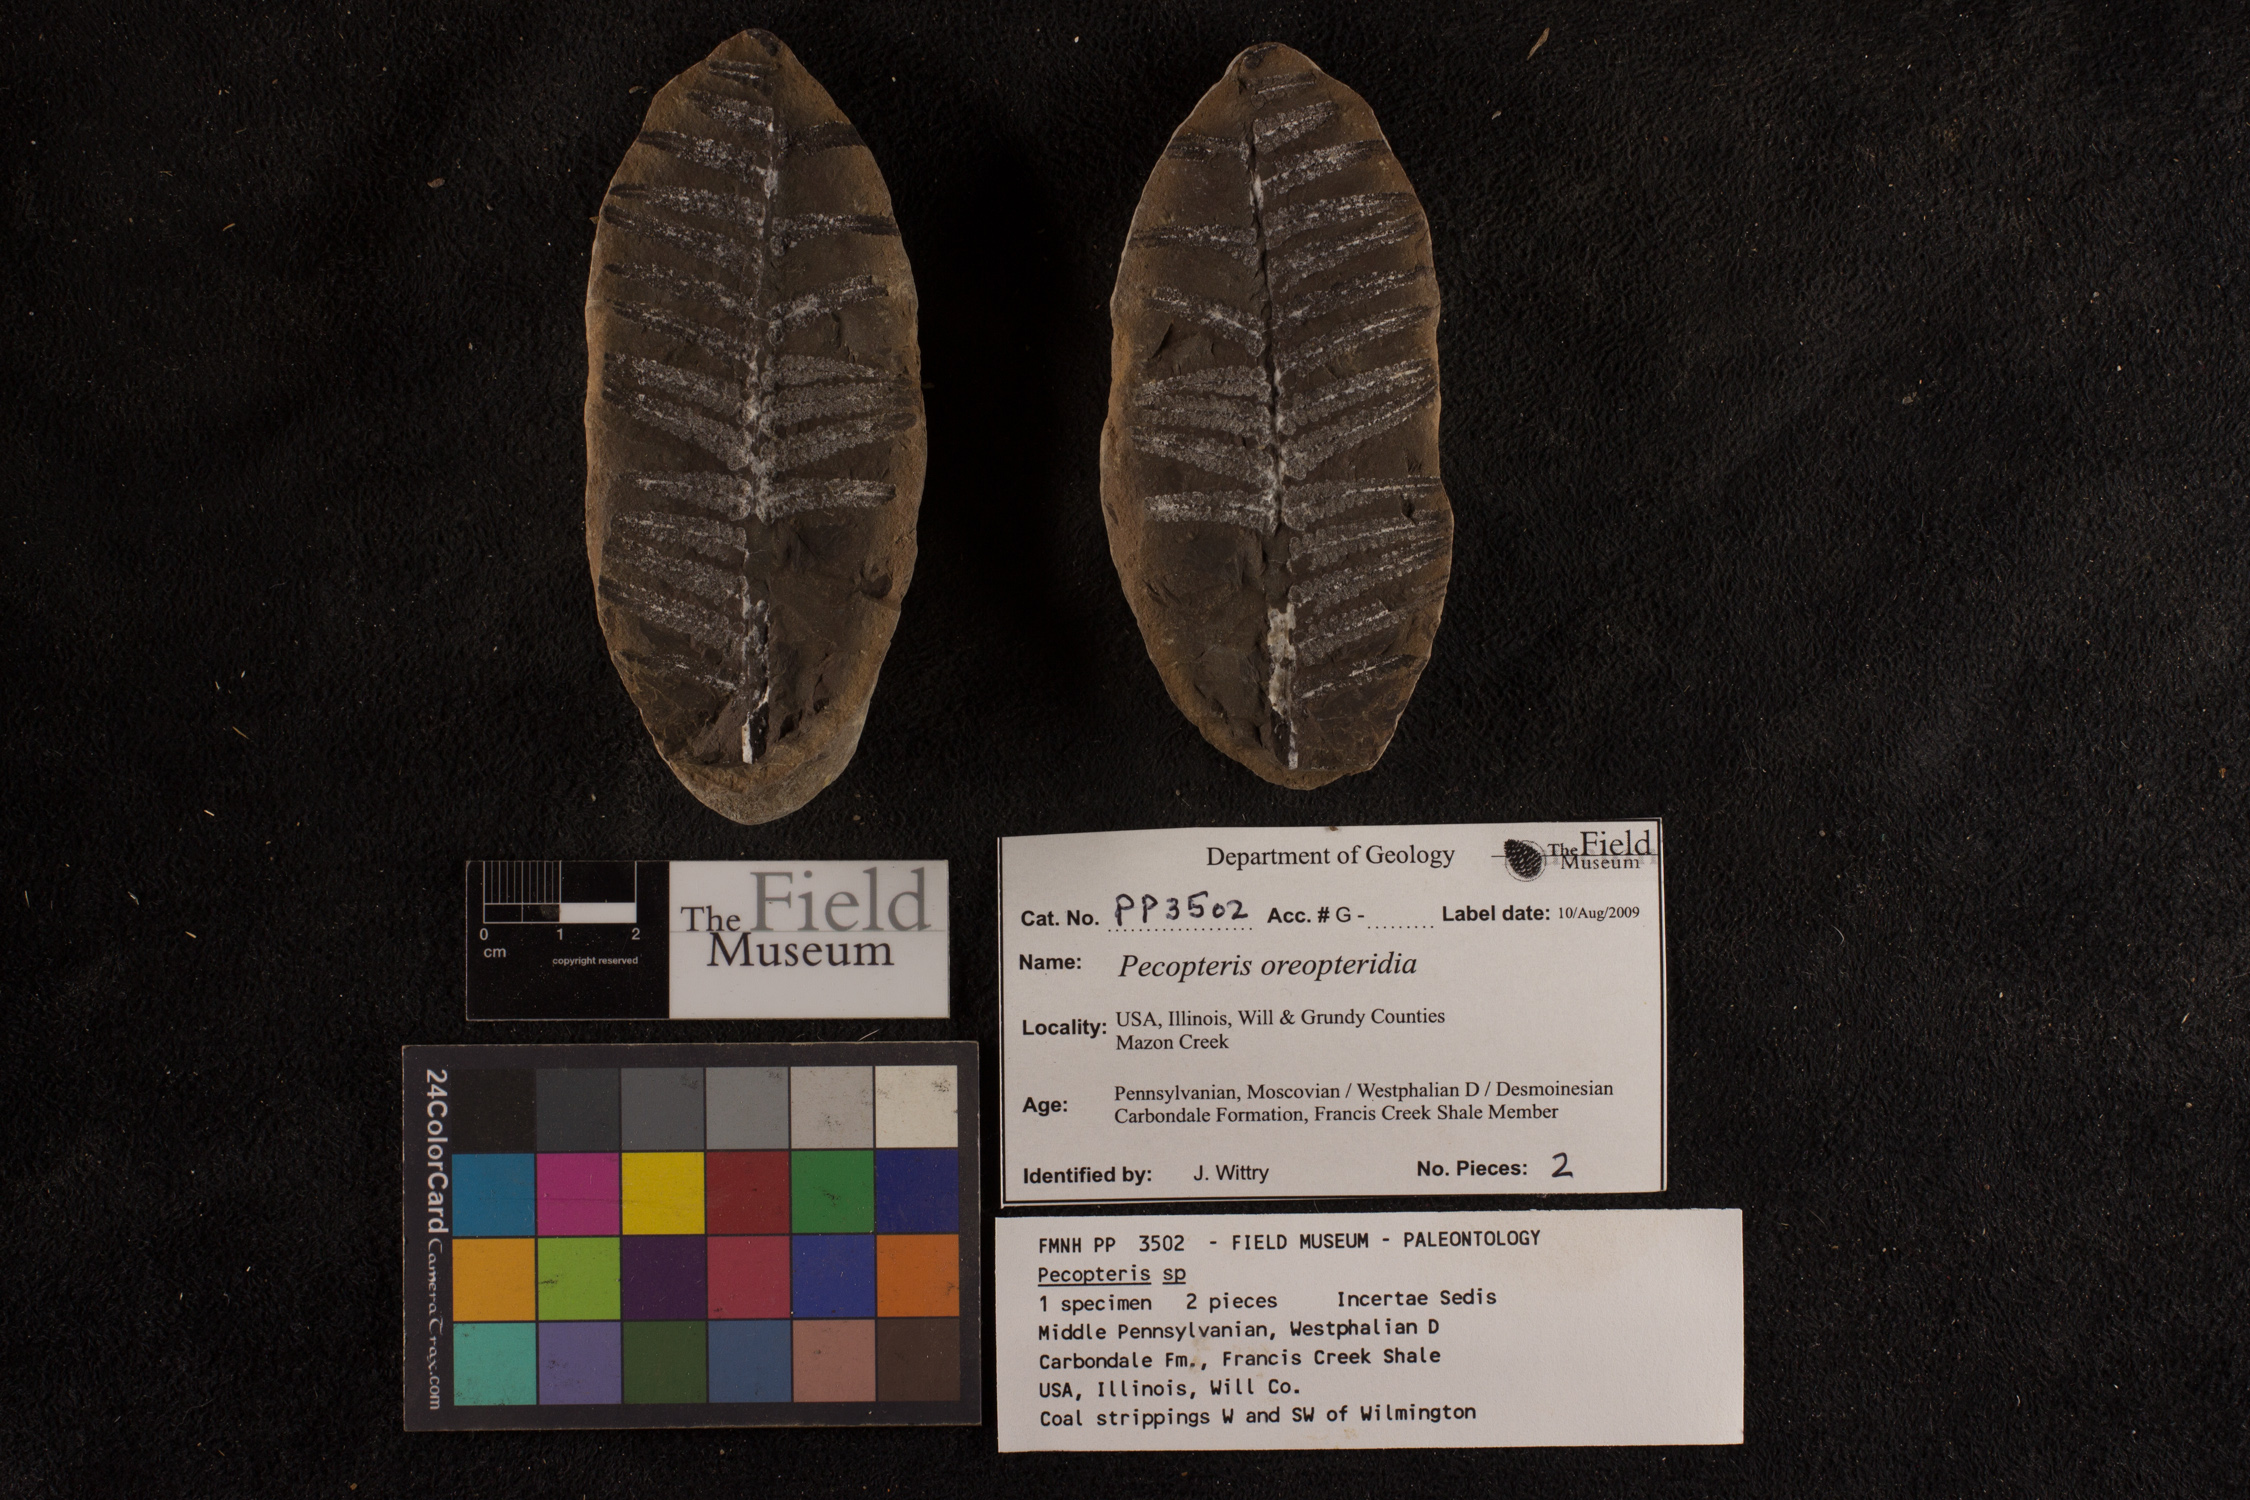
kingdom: Plantae
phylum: Tracheophyta
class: Polypodiopsida
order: Marattiales
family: Asterothecaceae
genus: Pecopteris
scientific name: Pecopteris
